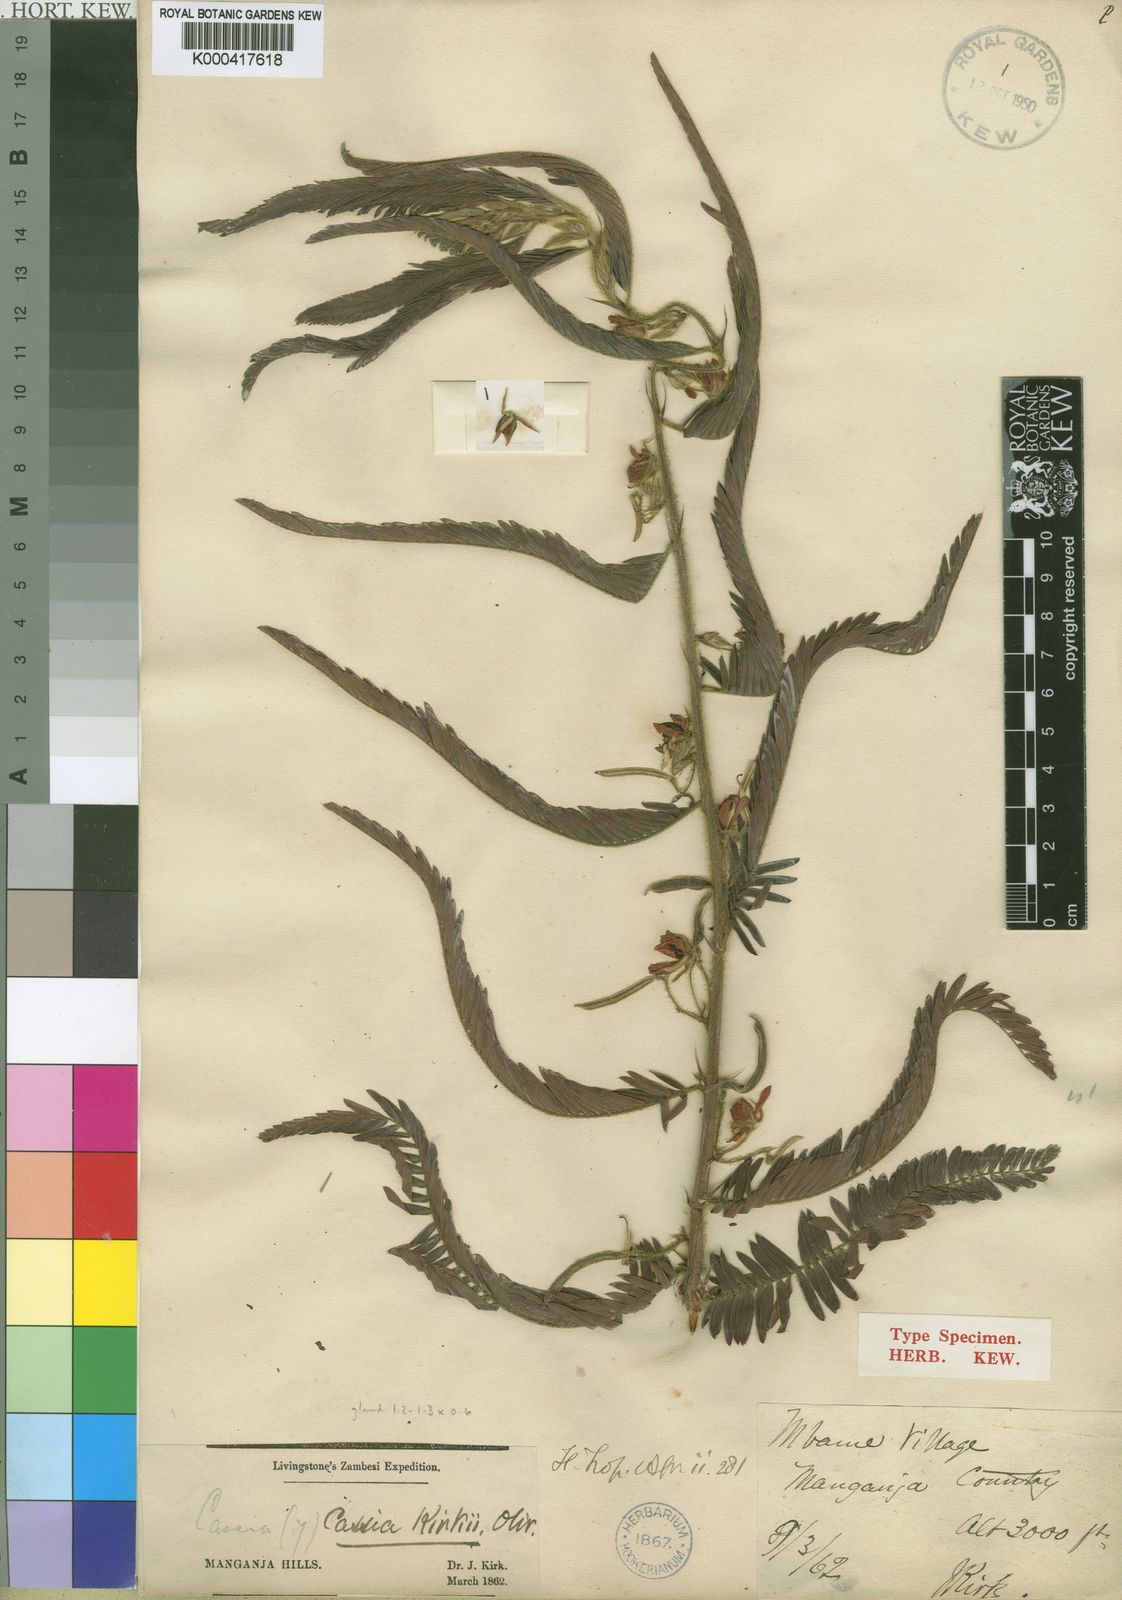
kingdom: Plantae
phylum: Tracheophyta
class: Magnoliopsida
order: Fabales
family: Fabaceae
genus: Chamaecrista
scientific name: Chamaecrista kirkii
